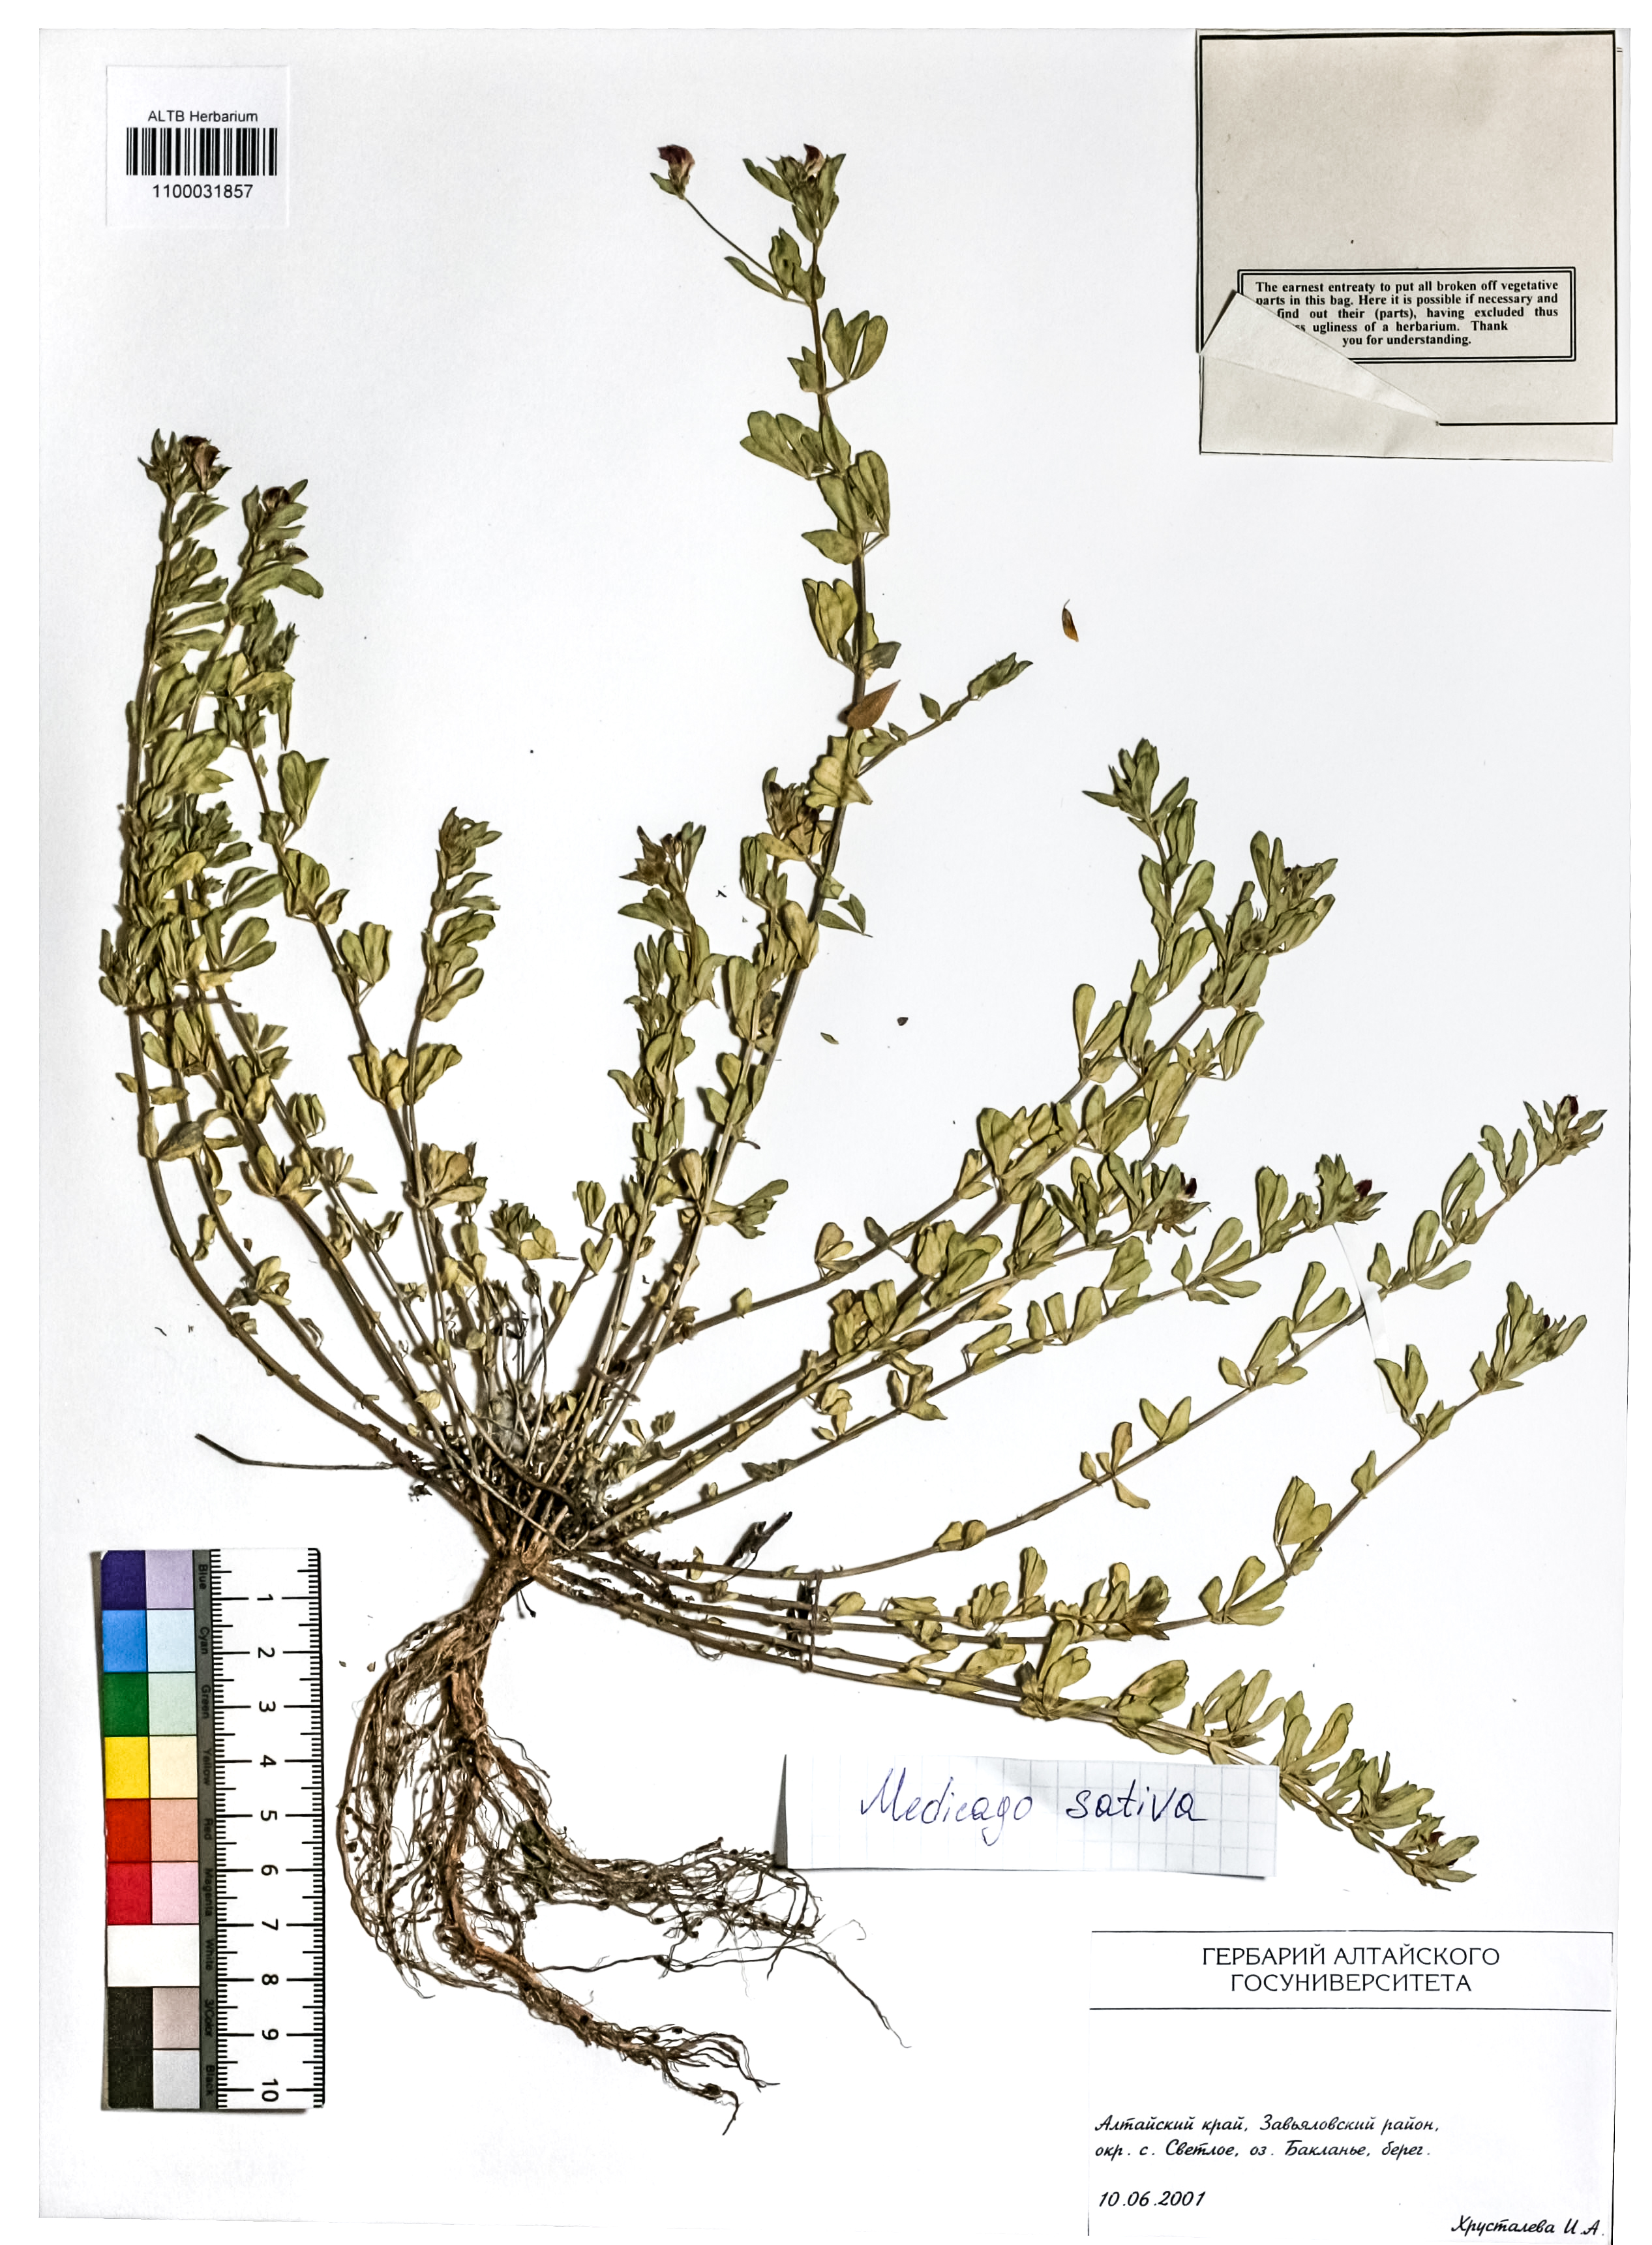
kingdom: Plantae
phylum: Tracheophyta
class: Magnoliopsida
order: Fabales
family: Fabaceae
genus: Medicago
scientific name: Medicago sativa
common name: Alfalfa
